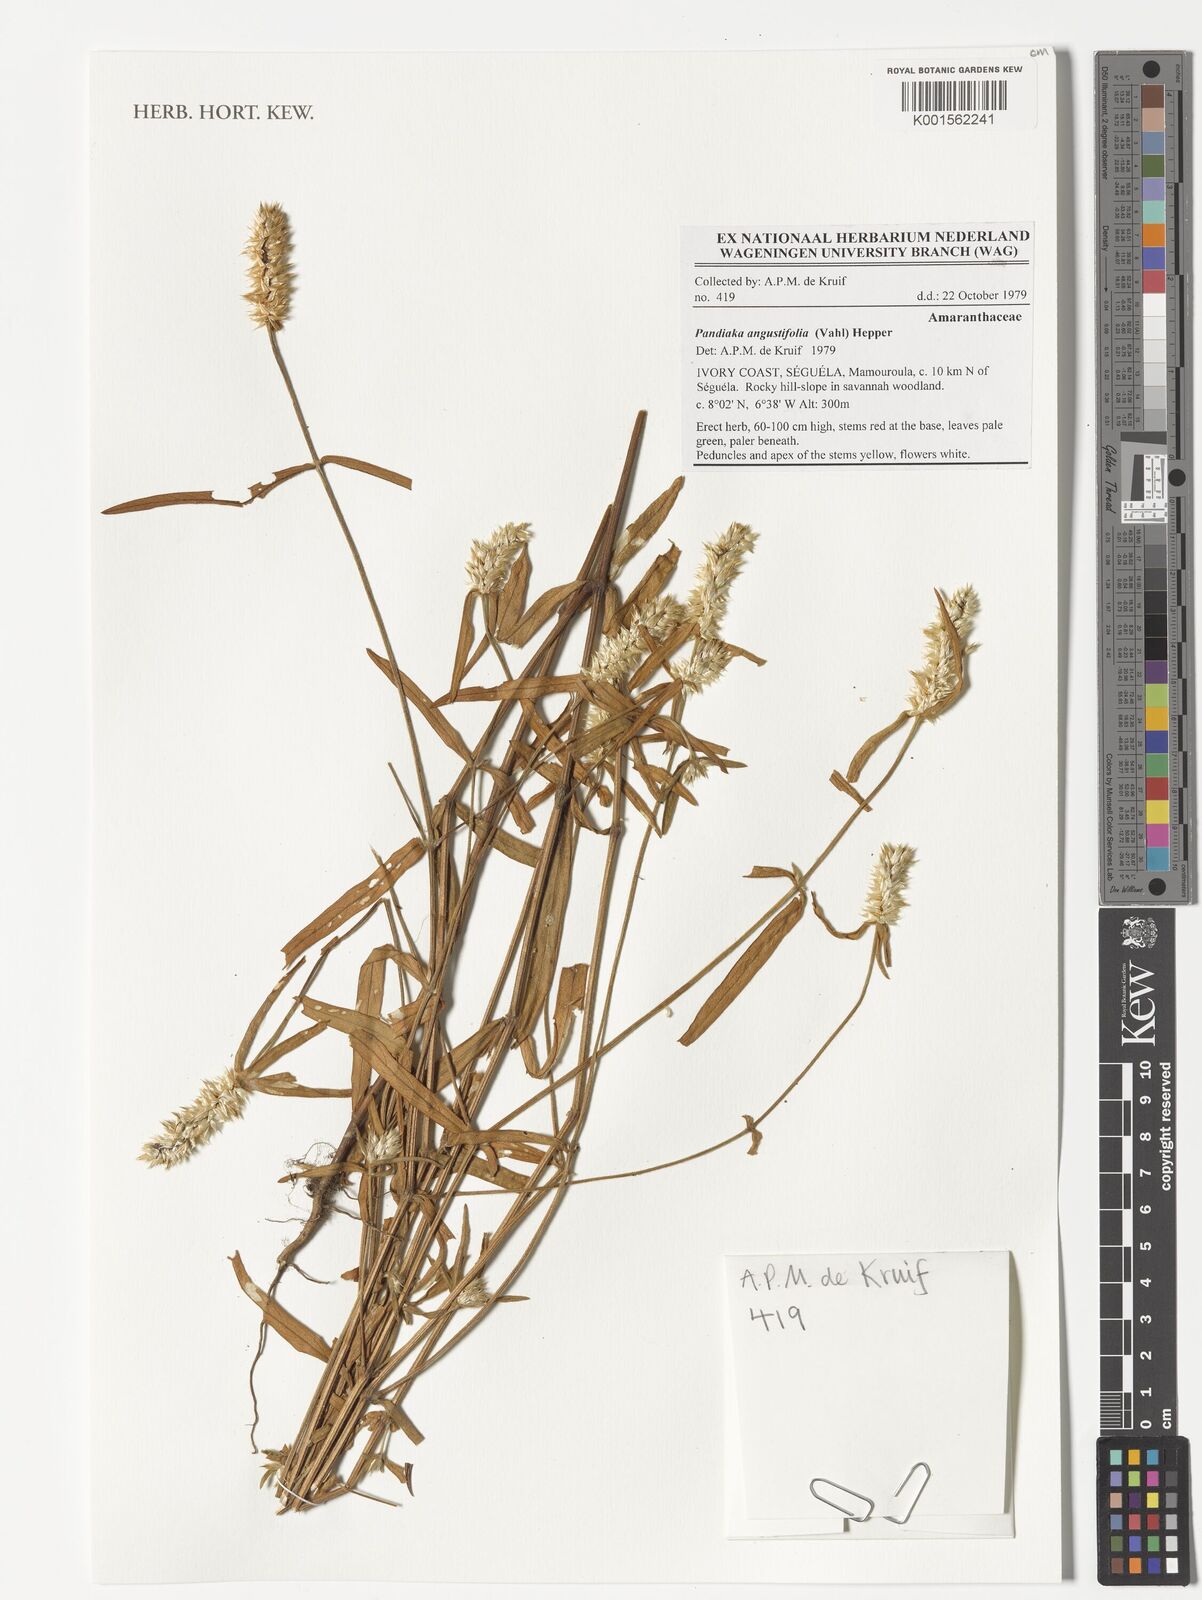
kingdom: Plantae
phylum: Tracheophyta
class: Magnoliopsida
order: Caryophyllales
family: Amaranthaceae
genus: Pandiaka
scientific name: Pandiaka angustifolia
